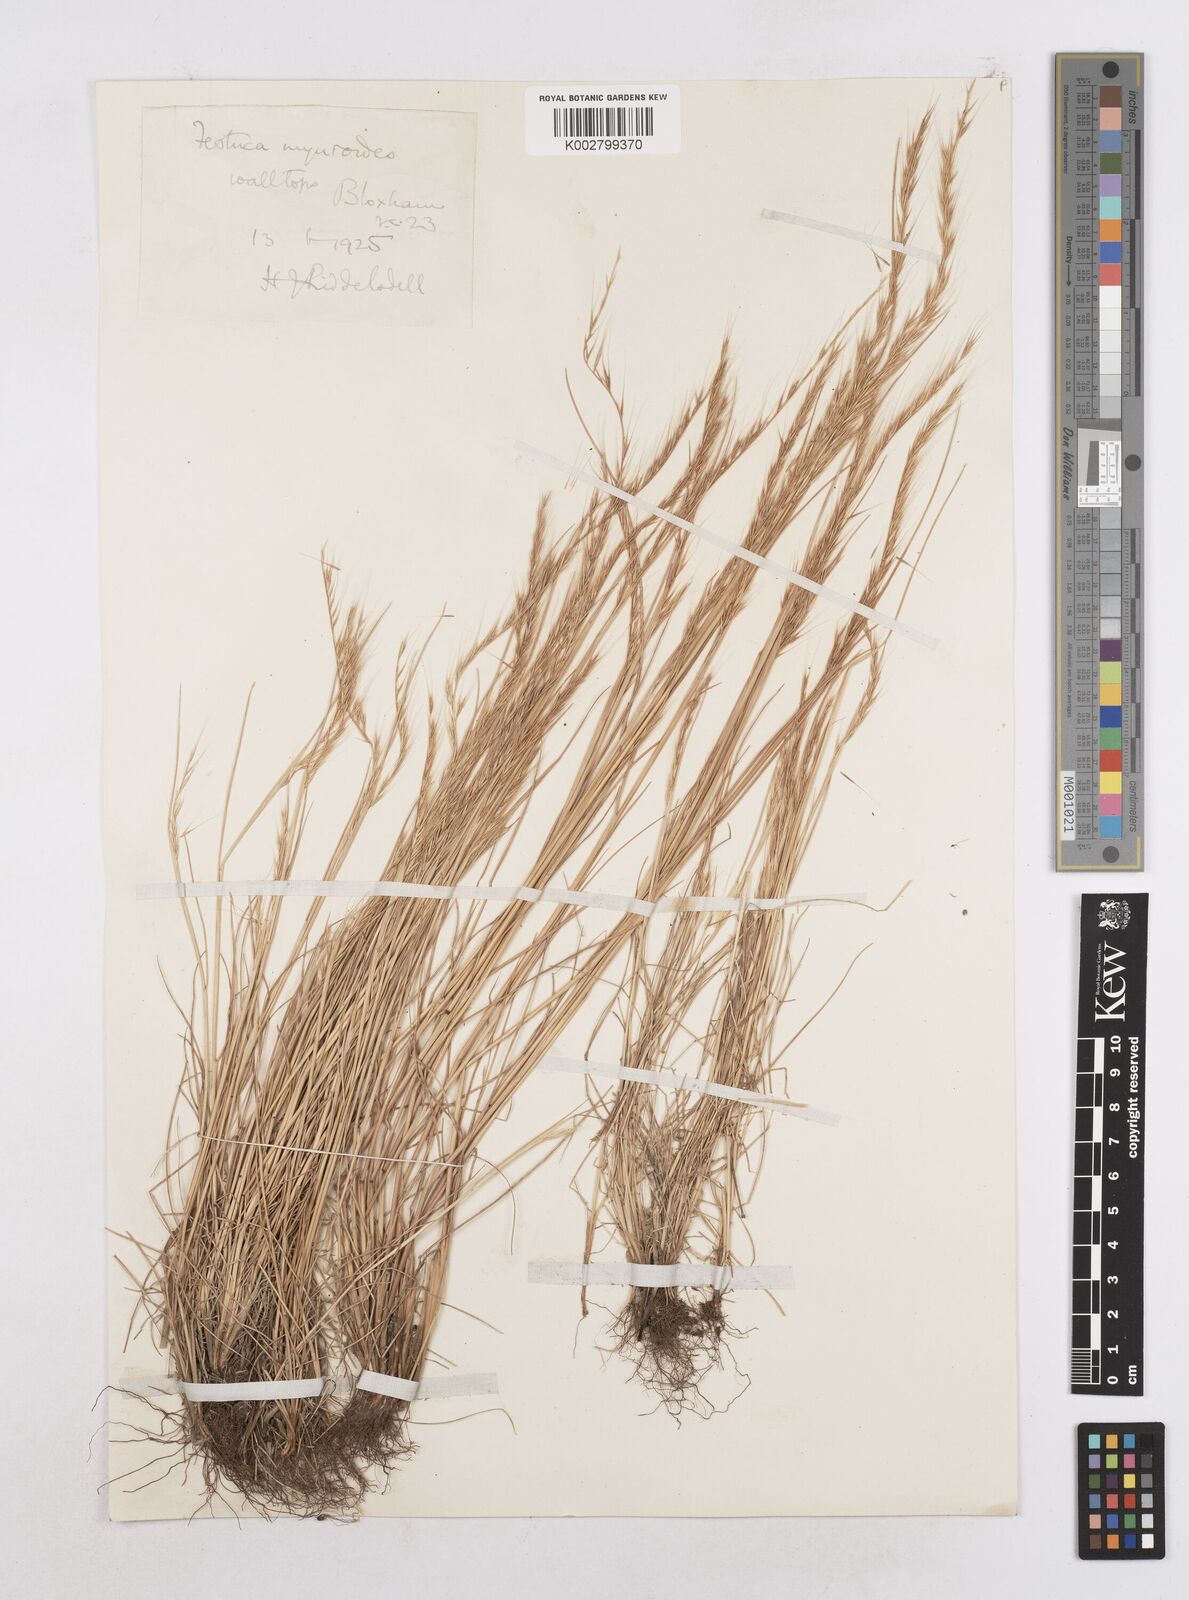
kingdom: Plantae
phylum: Tracheophyta
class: Liliopsida
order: Poales
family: Poaceae
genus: Festuca
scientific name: Festuca myuros
